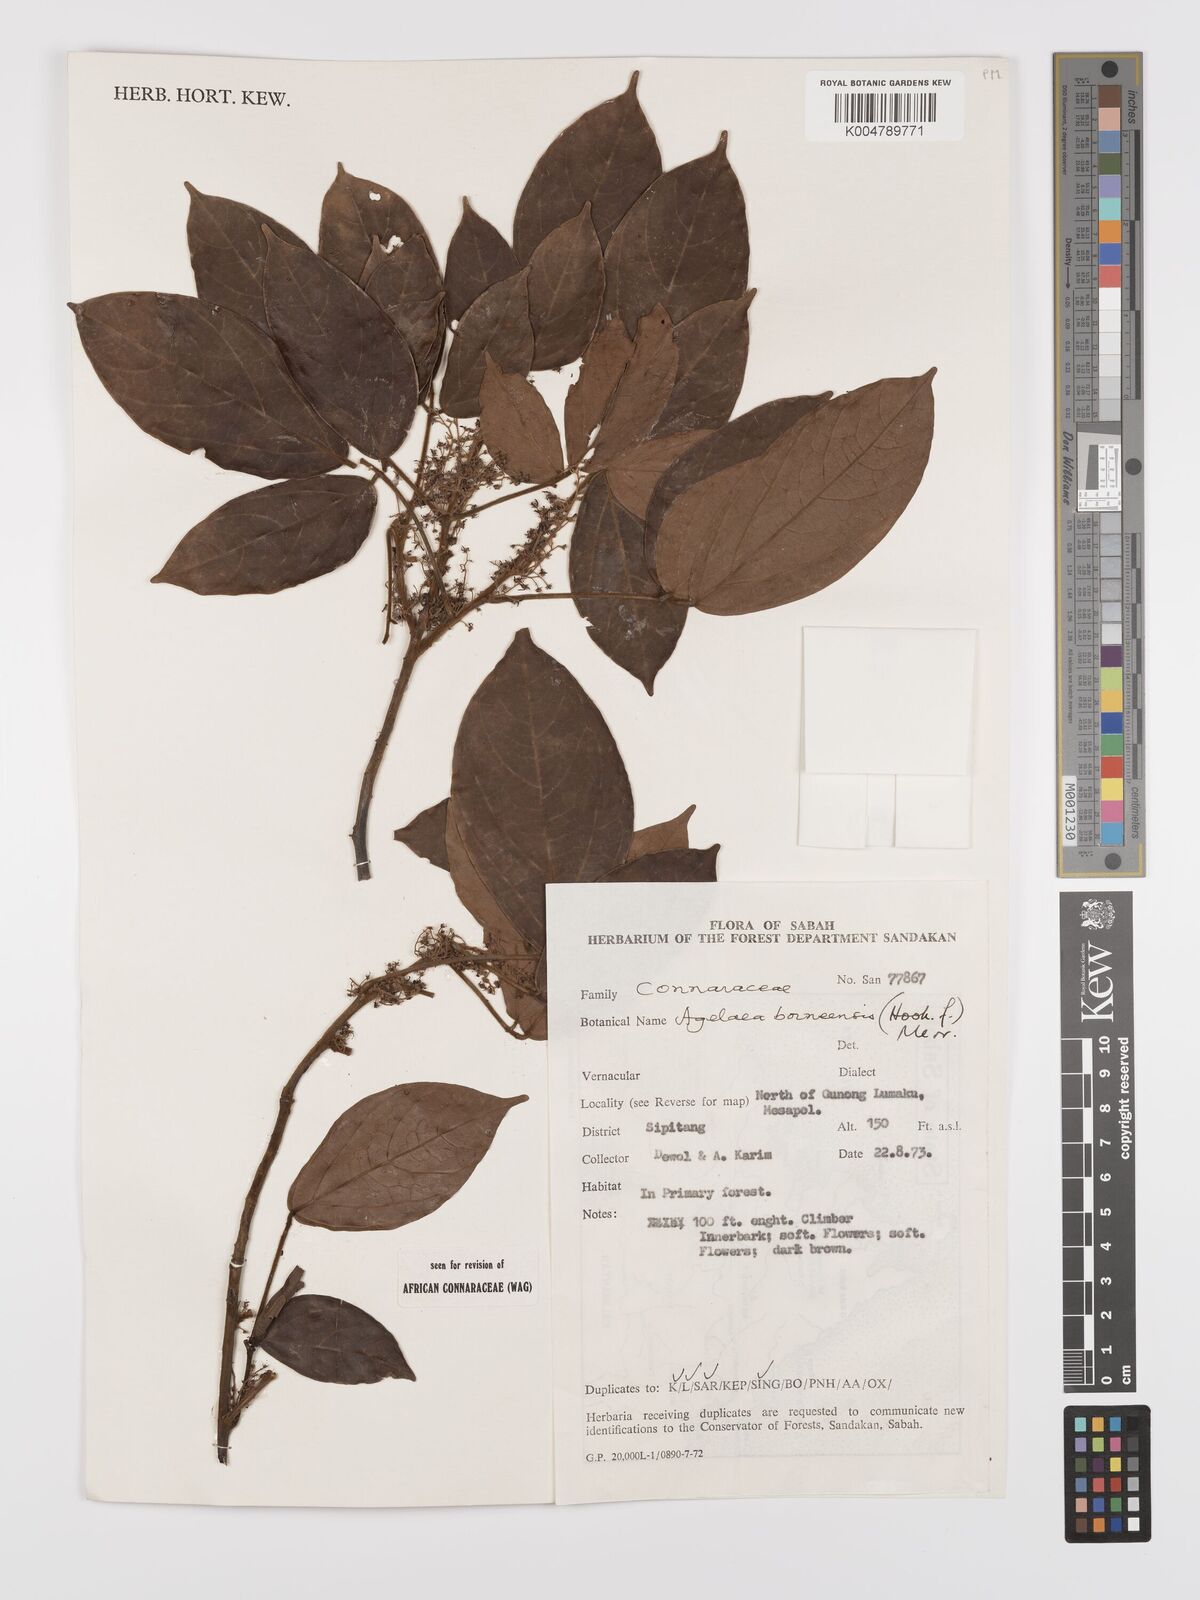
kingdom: Plantae
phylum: Tracheophyta
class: Magnoliopsida
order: Oxalidales
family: Connaraceae
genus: Agelaea
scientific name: Agelaea borneensis
